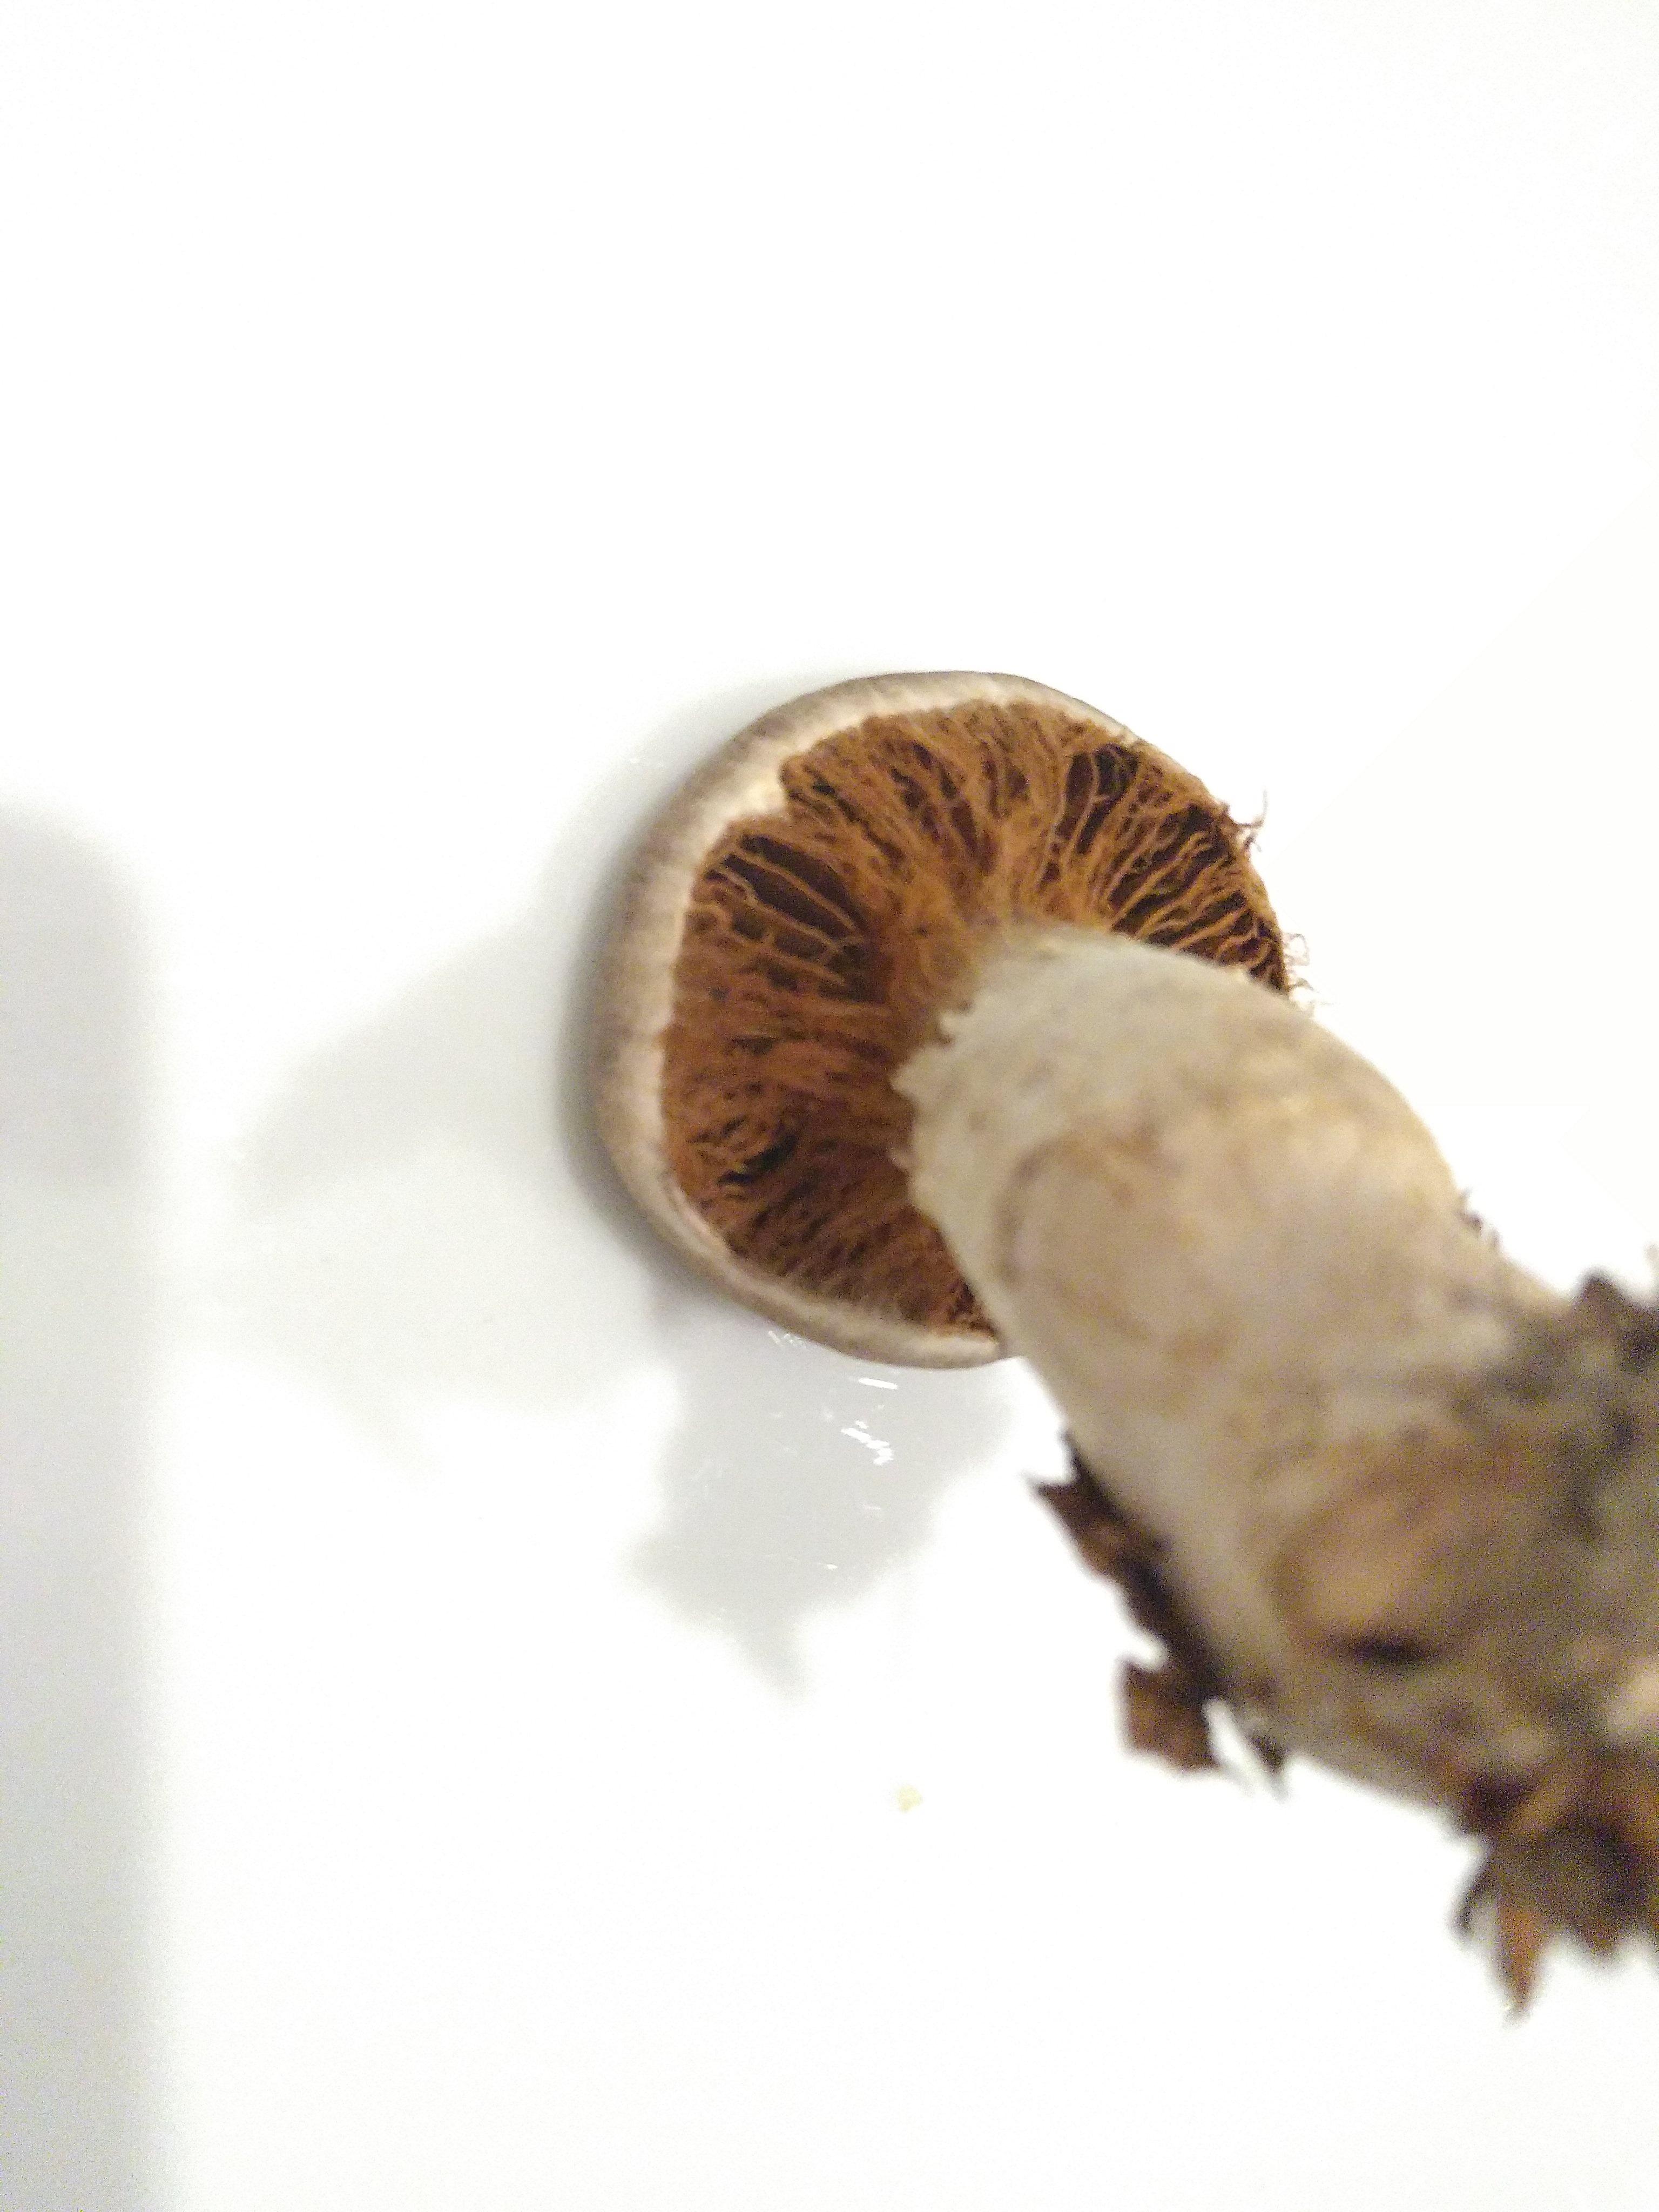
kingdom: Fungi
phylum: Basidiomycota
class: Agaricomycetes
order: Agaricales
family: Cortinariaceae
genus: Cortinarius
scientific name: Cortinarius torvus
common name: champignonagtig slørhat
